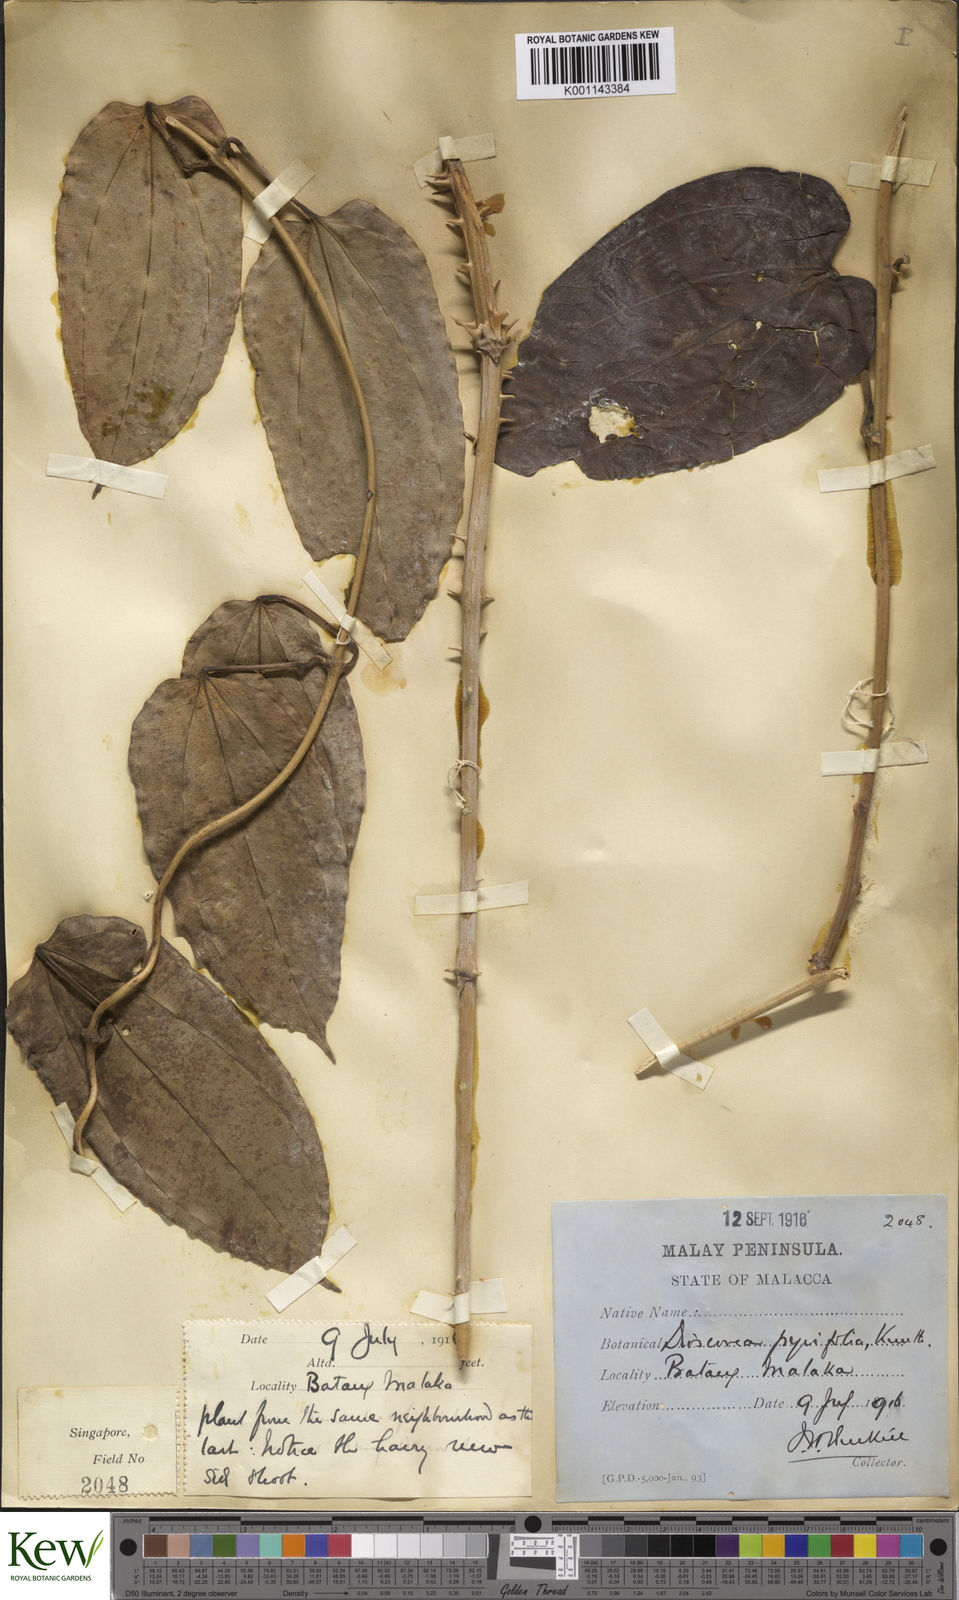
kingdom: Plantae
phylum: Tracheophyta
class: Liliopsida
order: Dioscoreales
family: Dioscoreaceae
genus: Dioscorea
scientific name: Dioscorea pyrifolia
